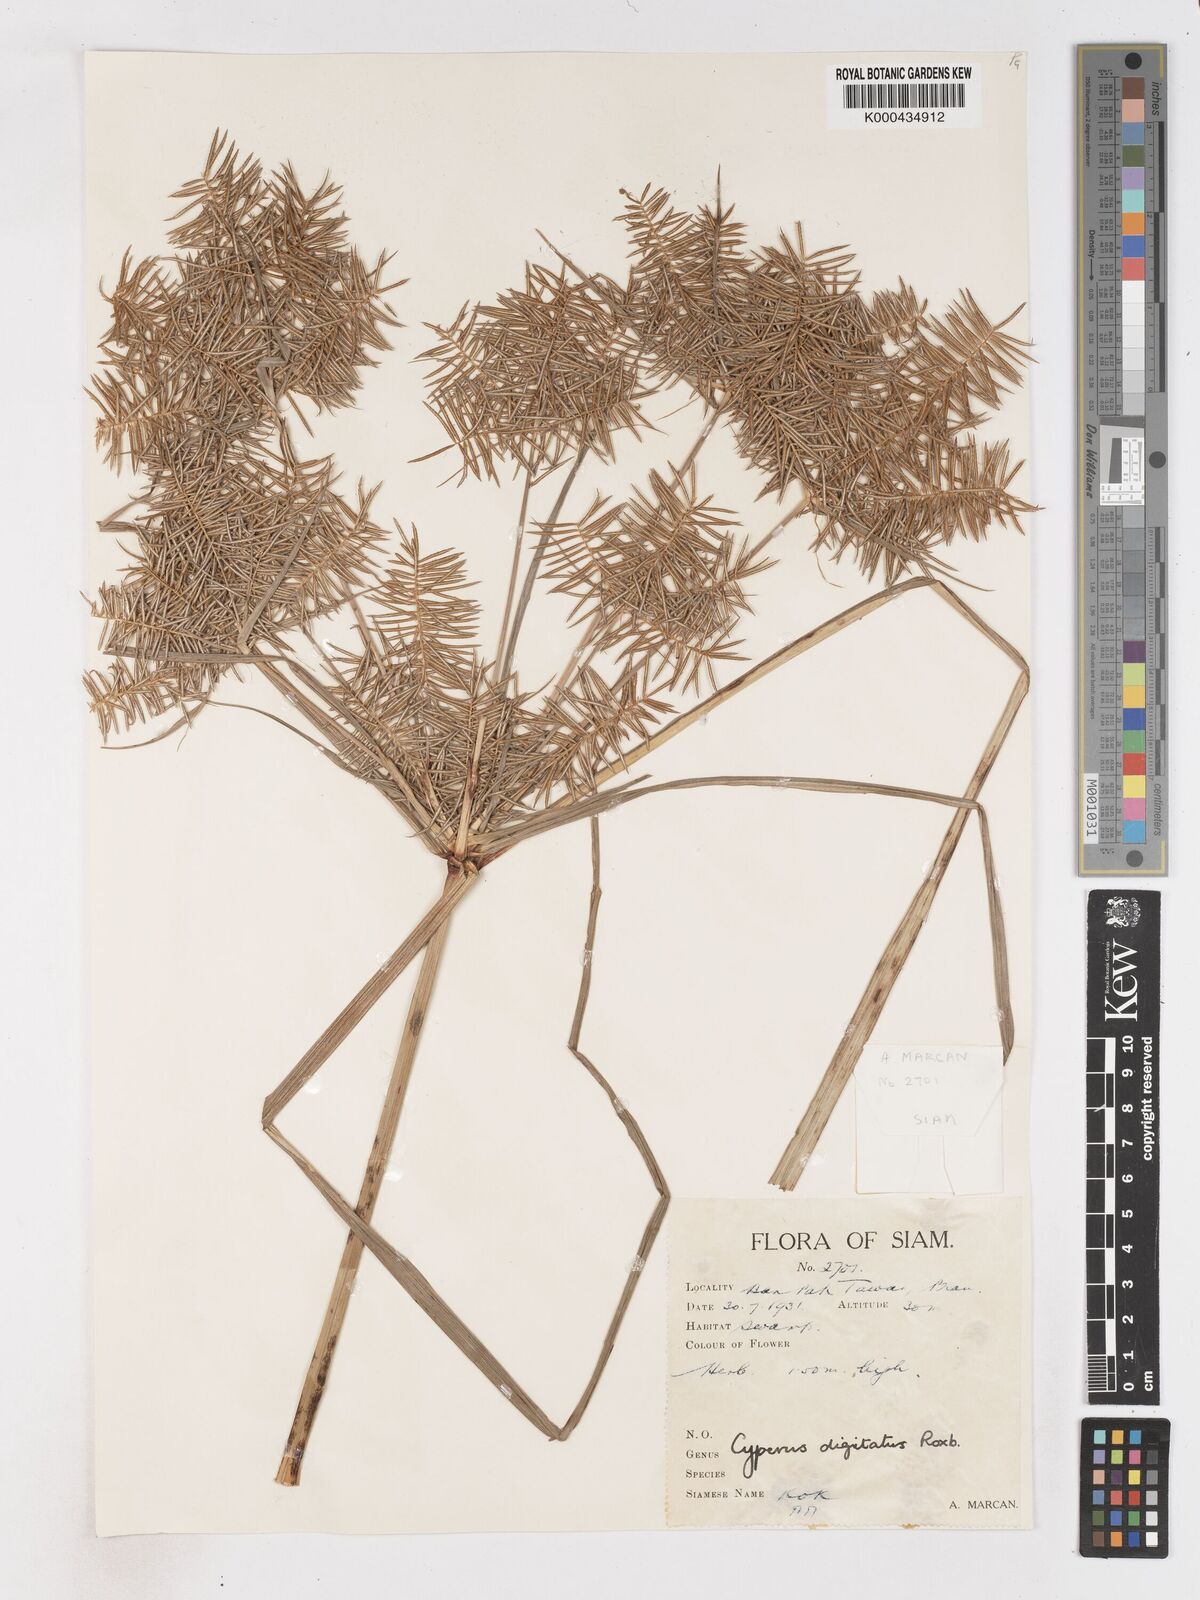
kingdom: Plantae
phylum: Tracheophyta
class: Liliopsida
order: Poales
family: Cyperaceae
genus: Cyperus
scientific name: Cyperus digitatus
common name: Finger flatsedge
